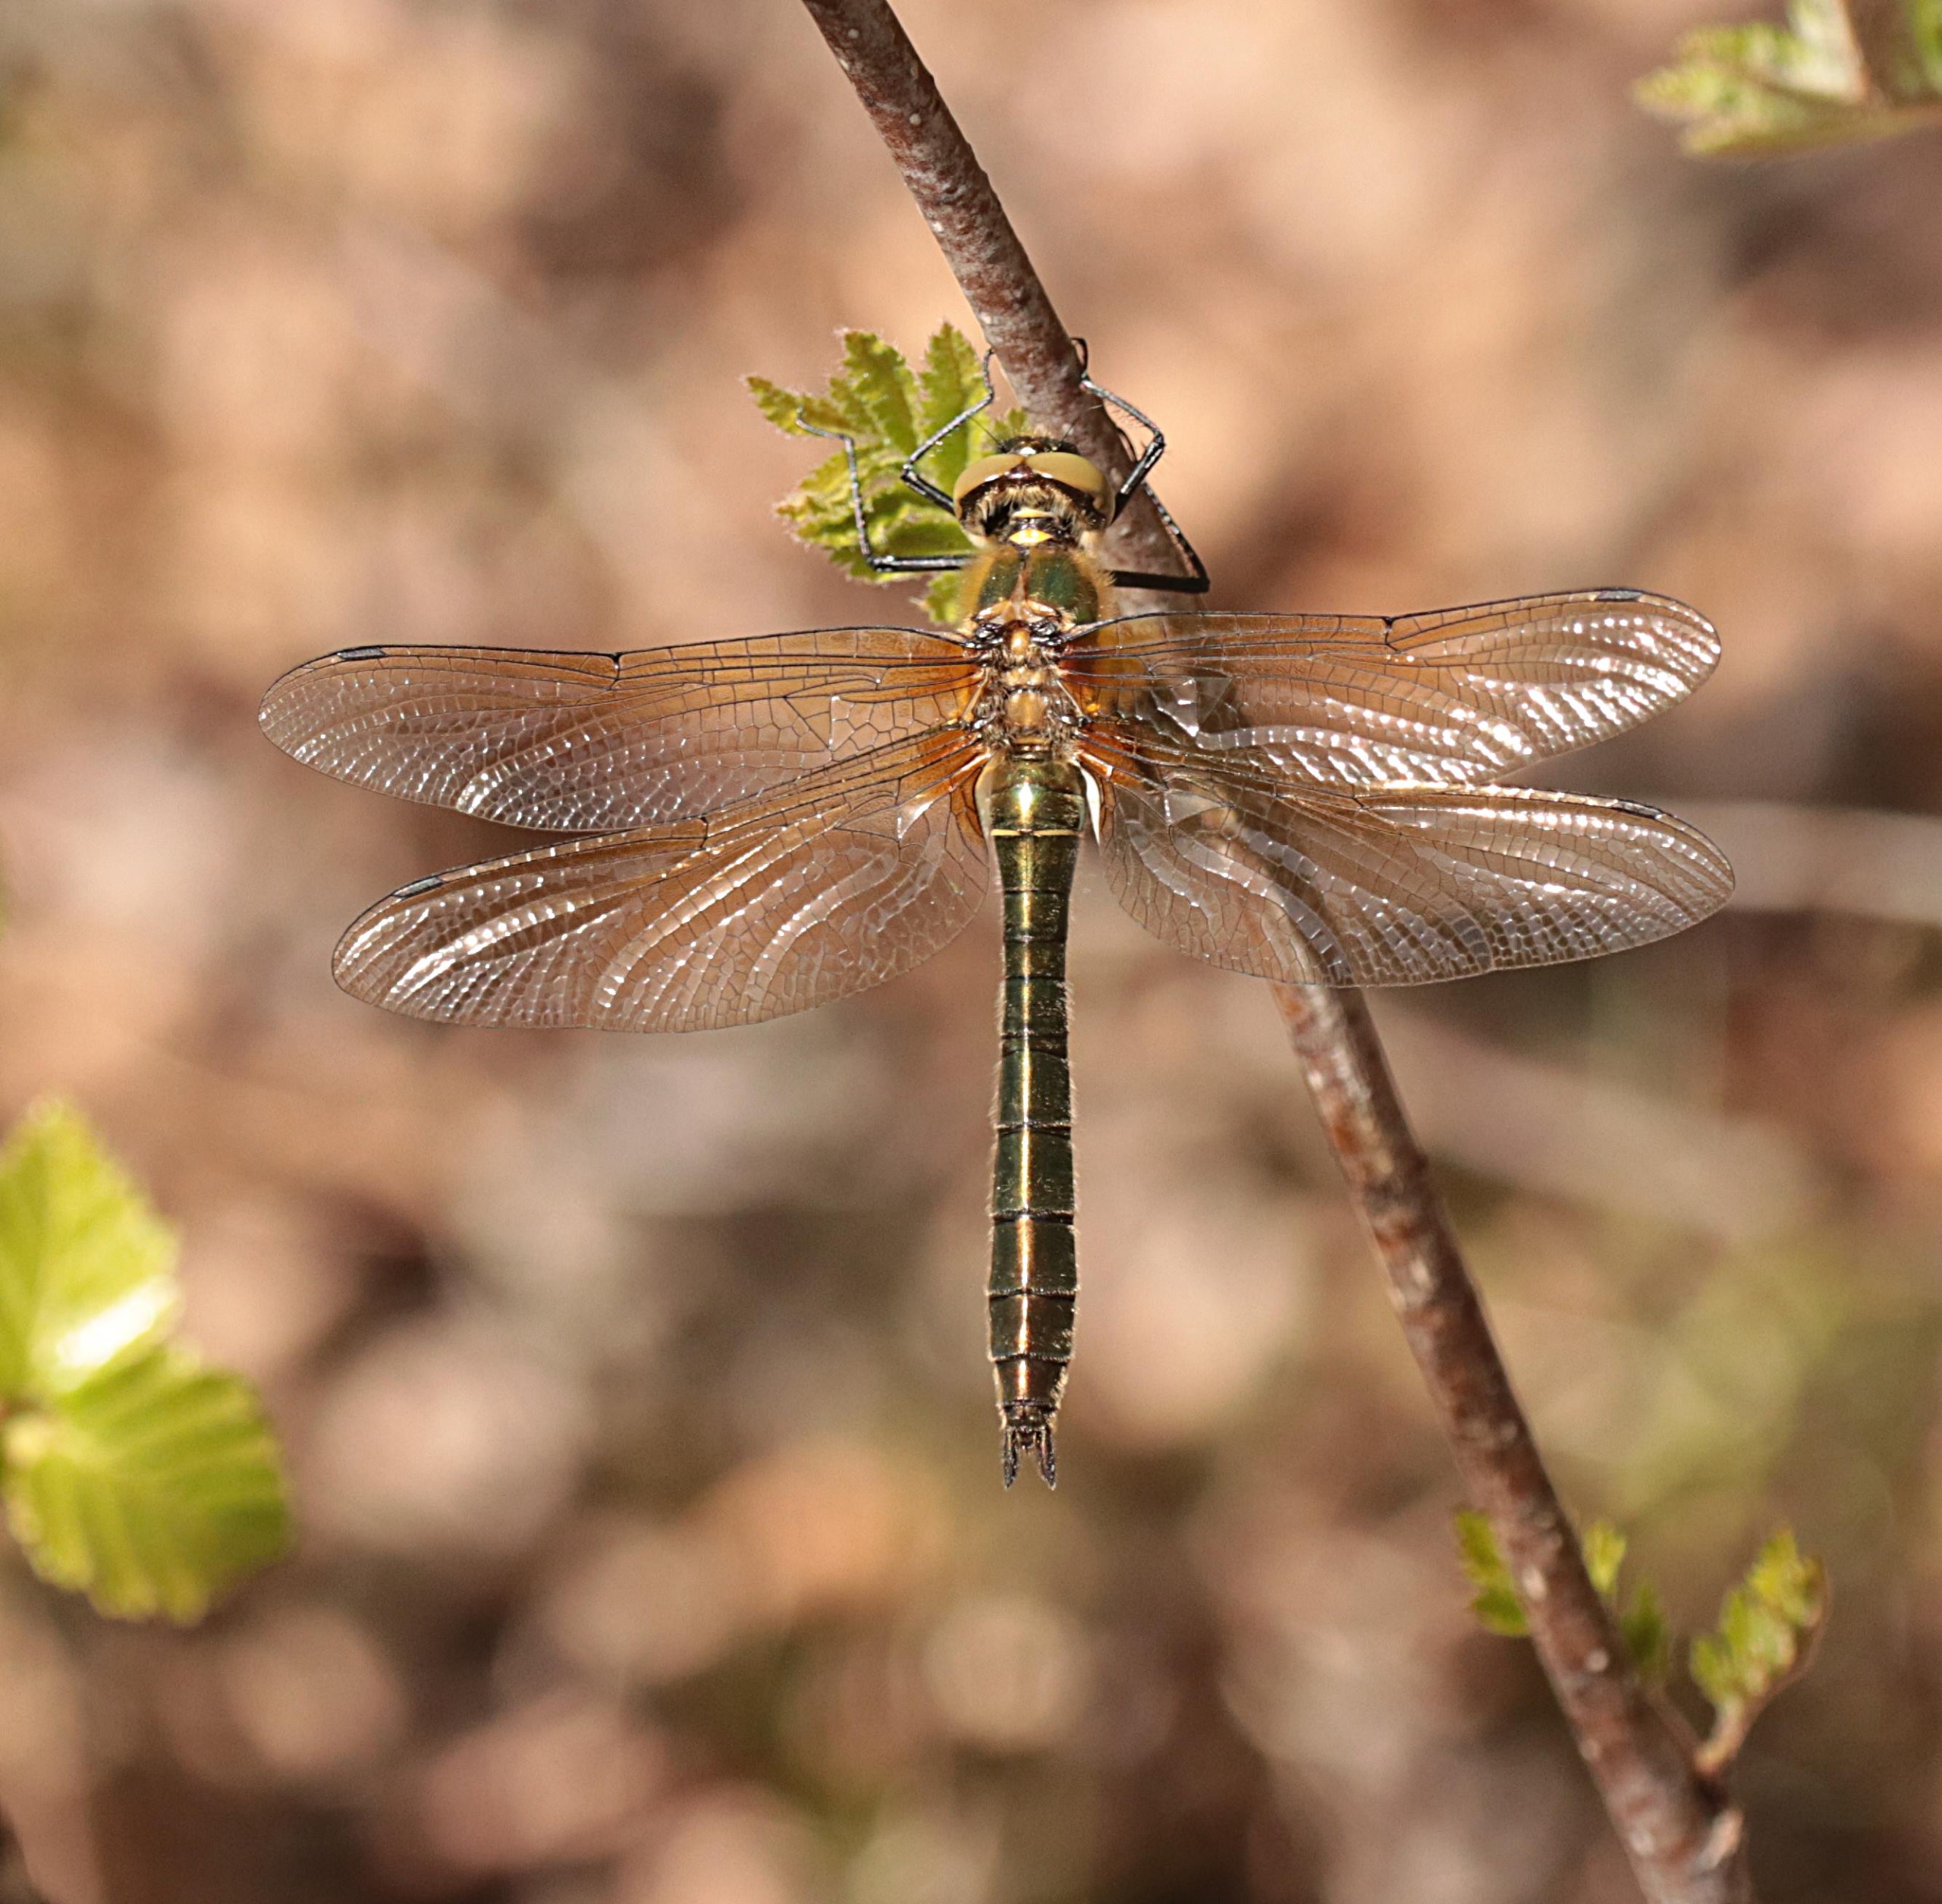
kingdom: Animalia
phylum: Arthropoda
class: Insecta
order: Odonata
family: Corduliidae
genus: Cordulia
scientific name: Cordulia aenea
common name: Grøn smaragdlibel
